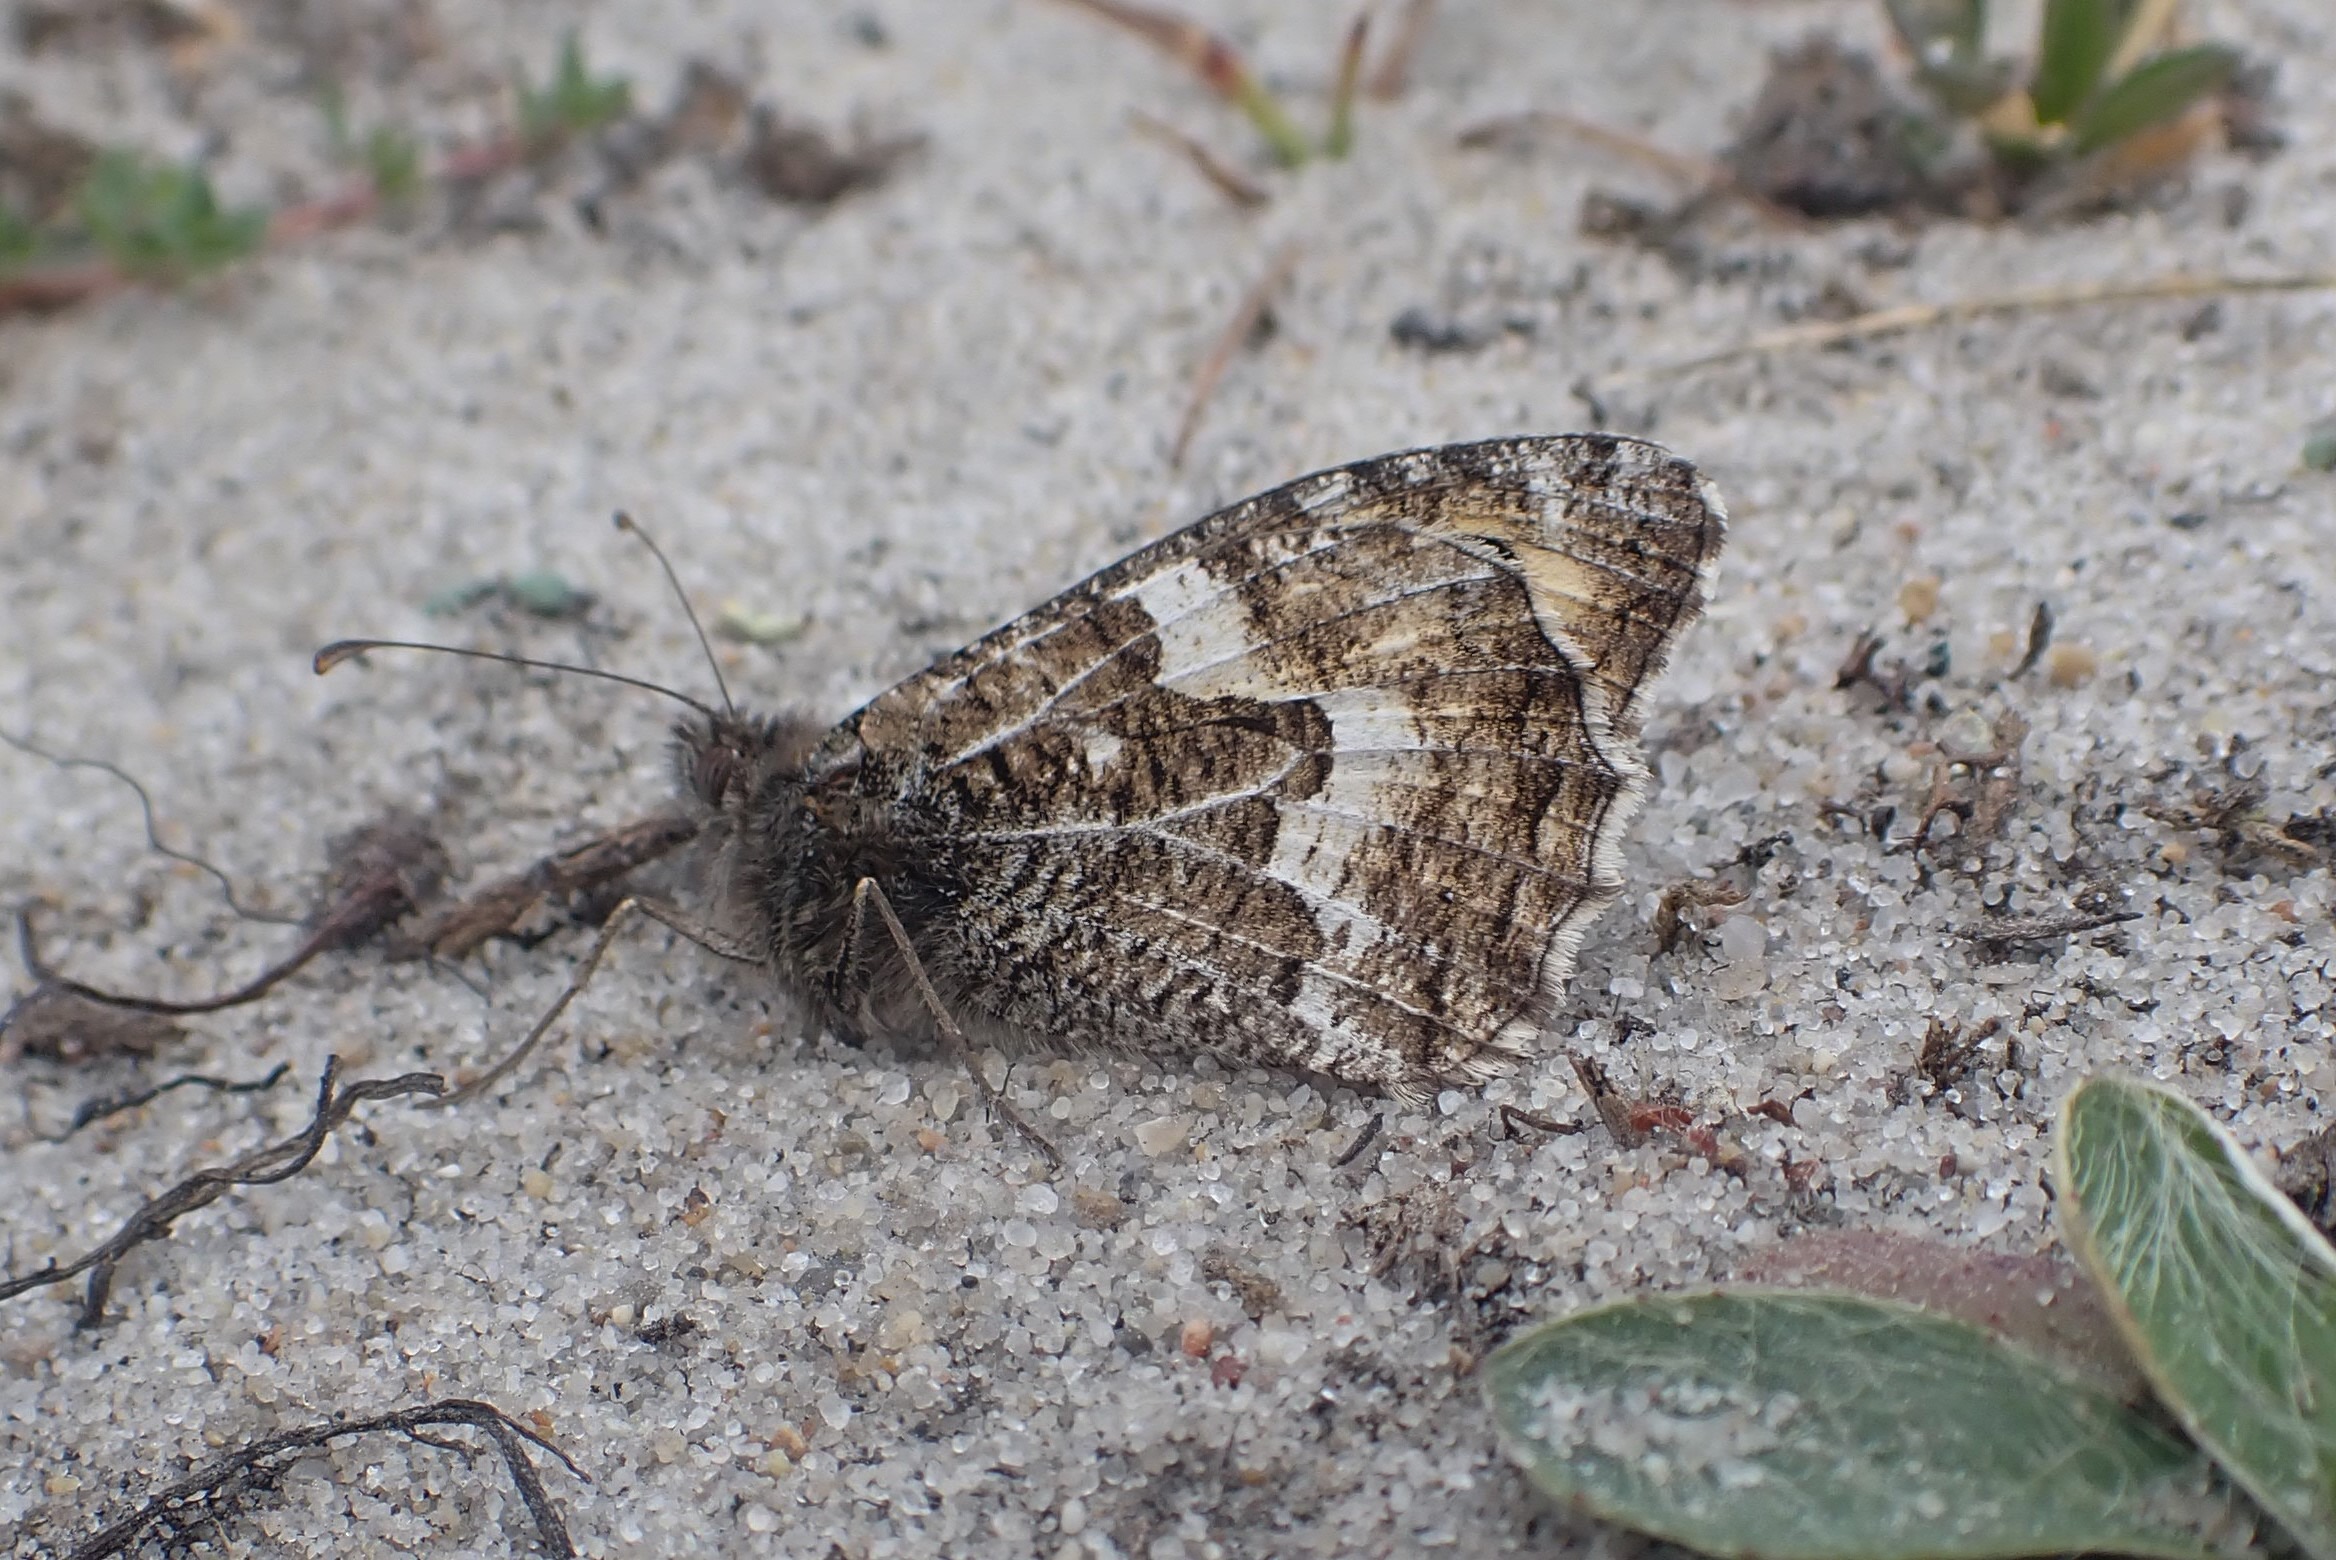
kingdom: Animalia
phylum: Arthropoda
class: Insecta
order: Lepidoptera
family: Nymphalidae
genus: Hipparchia
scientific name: Hipparchia semele
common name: Sandrandøje
